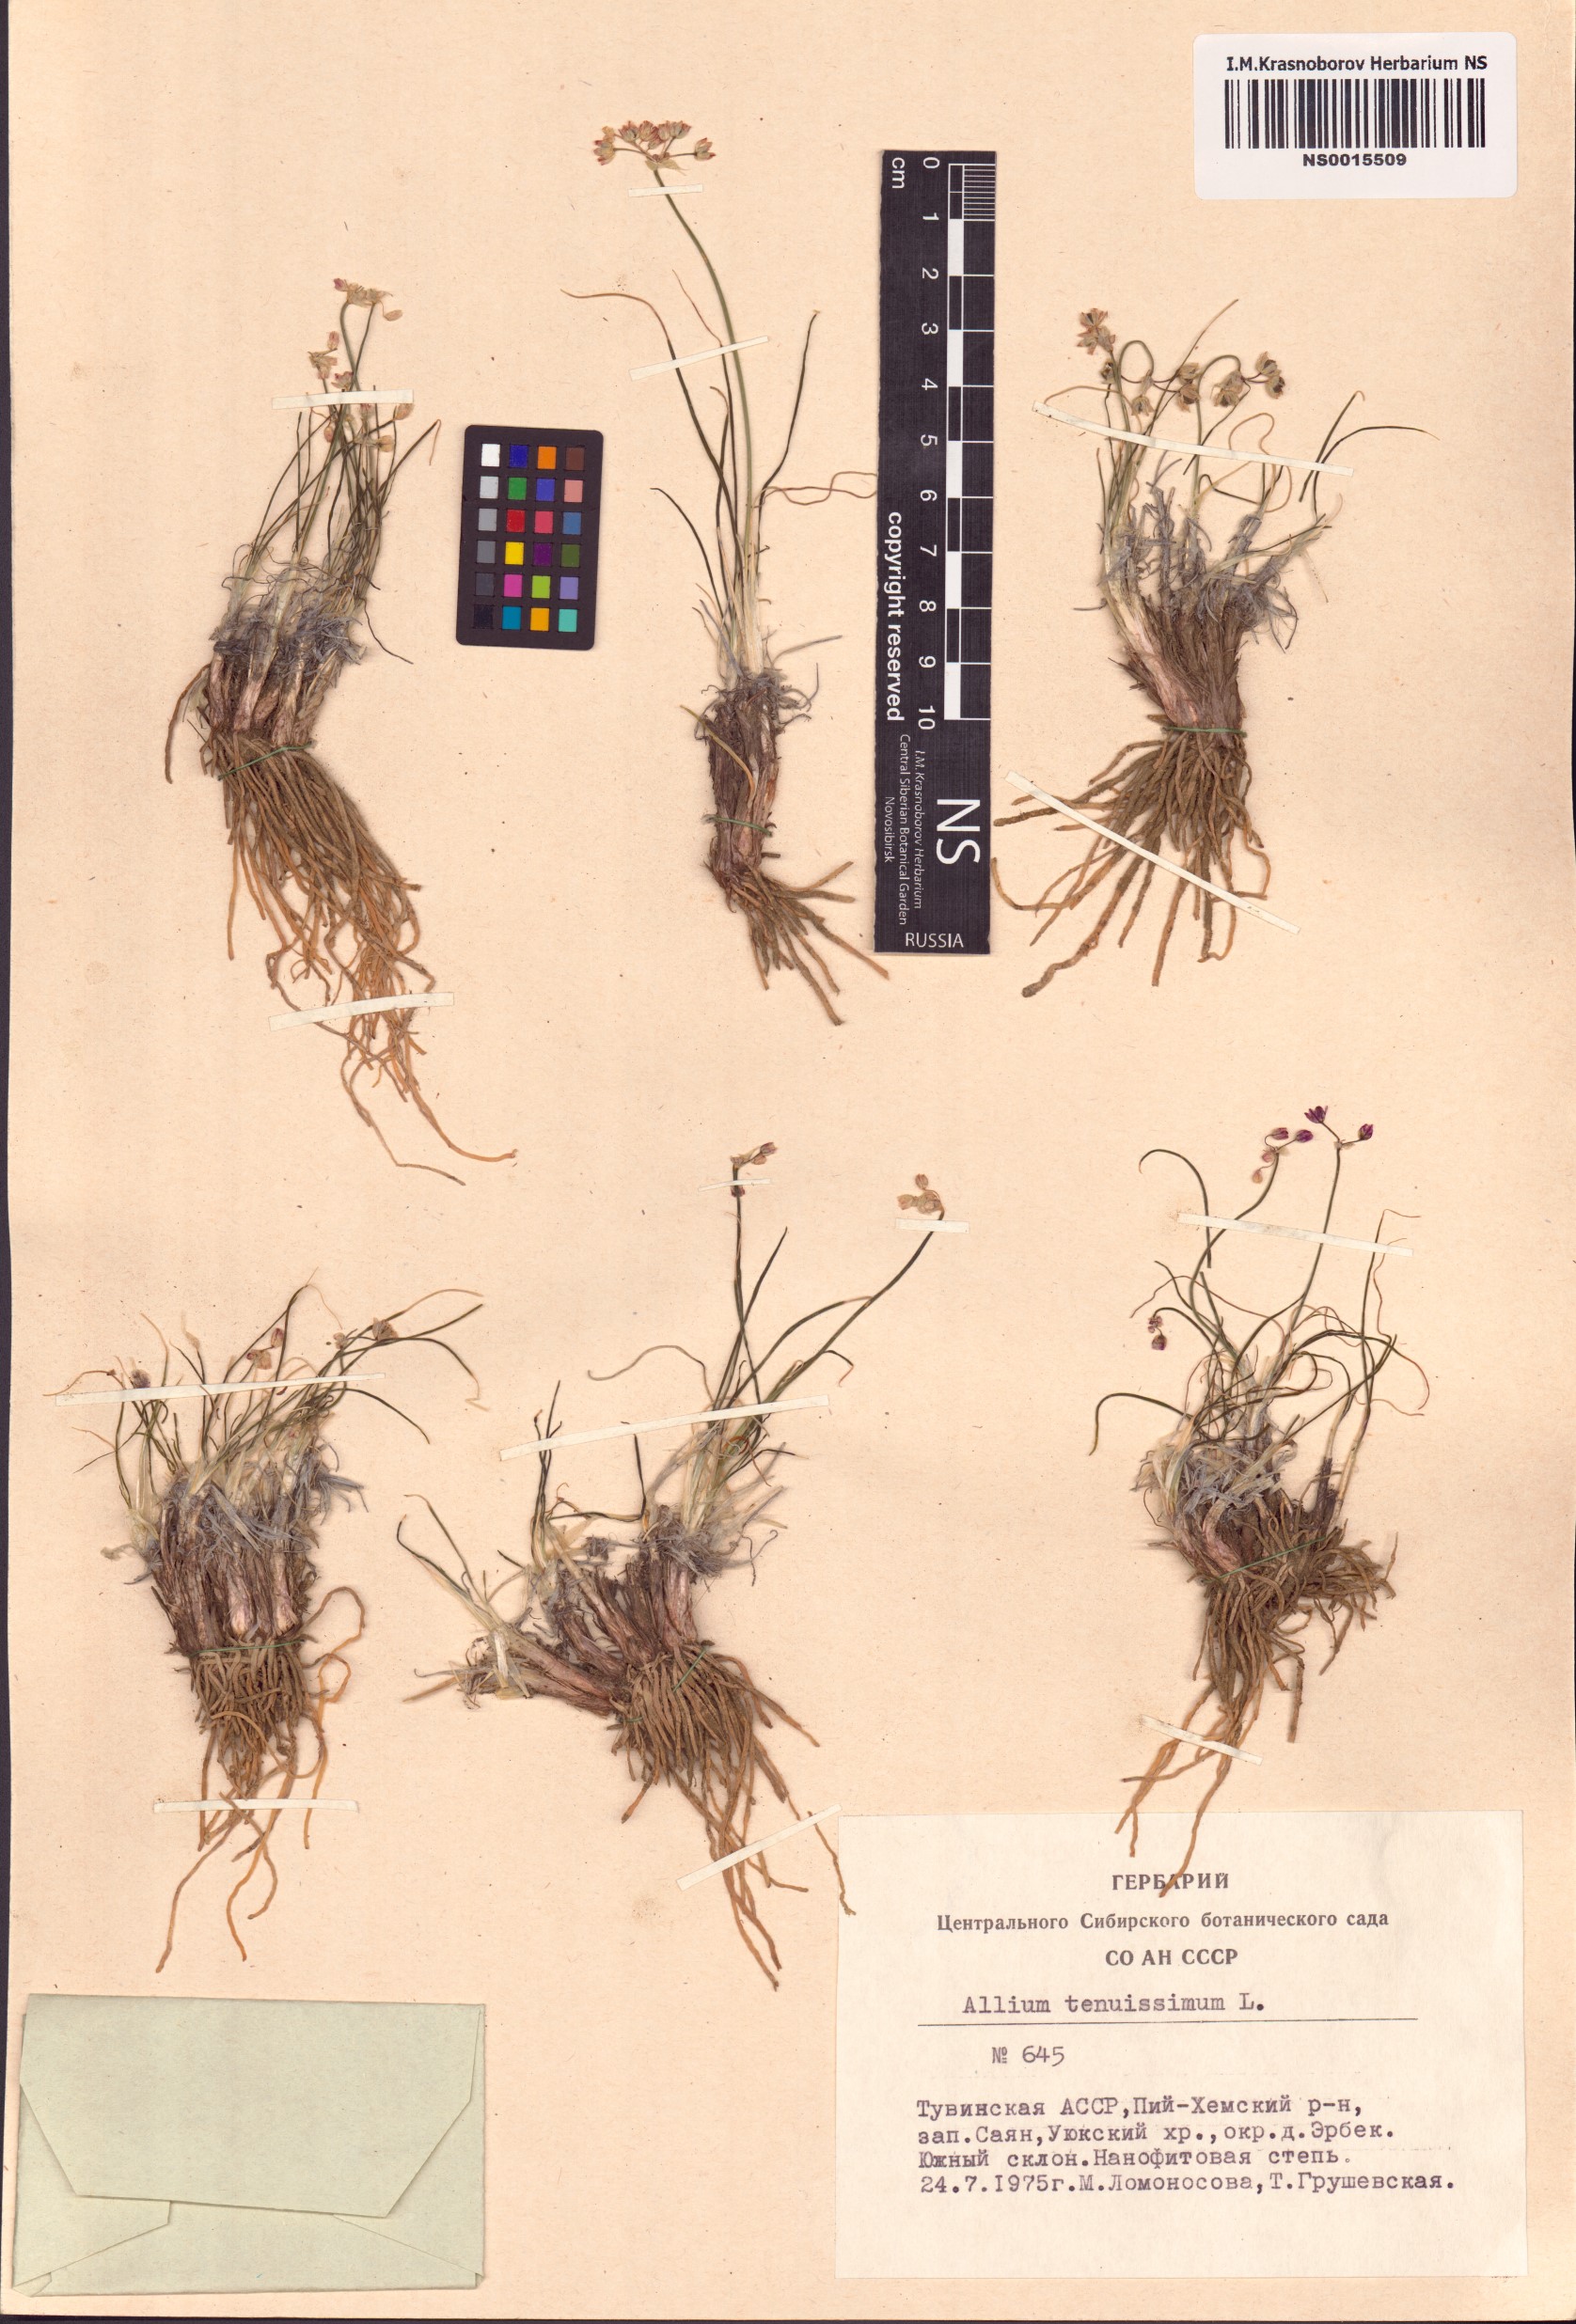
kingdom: Plantae
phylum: Tracheophyta
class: Liliopsida
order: Asparagales
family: Amaryllidaceae
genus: Allium
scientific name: Allium tenuissimum
